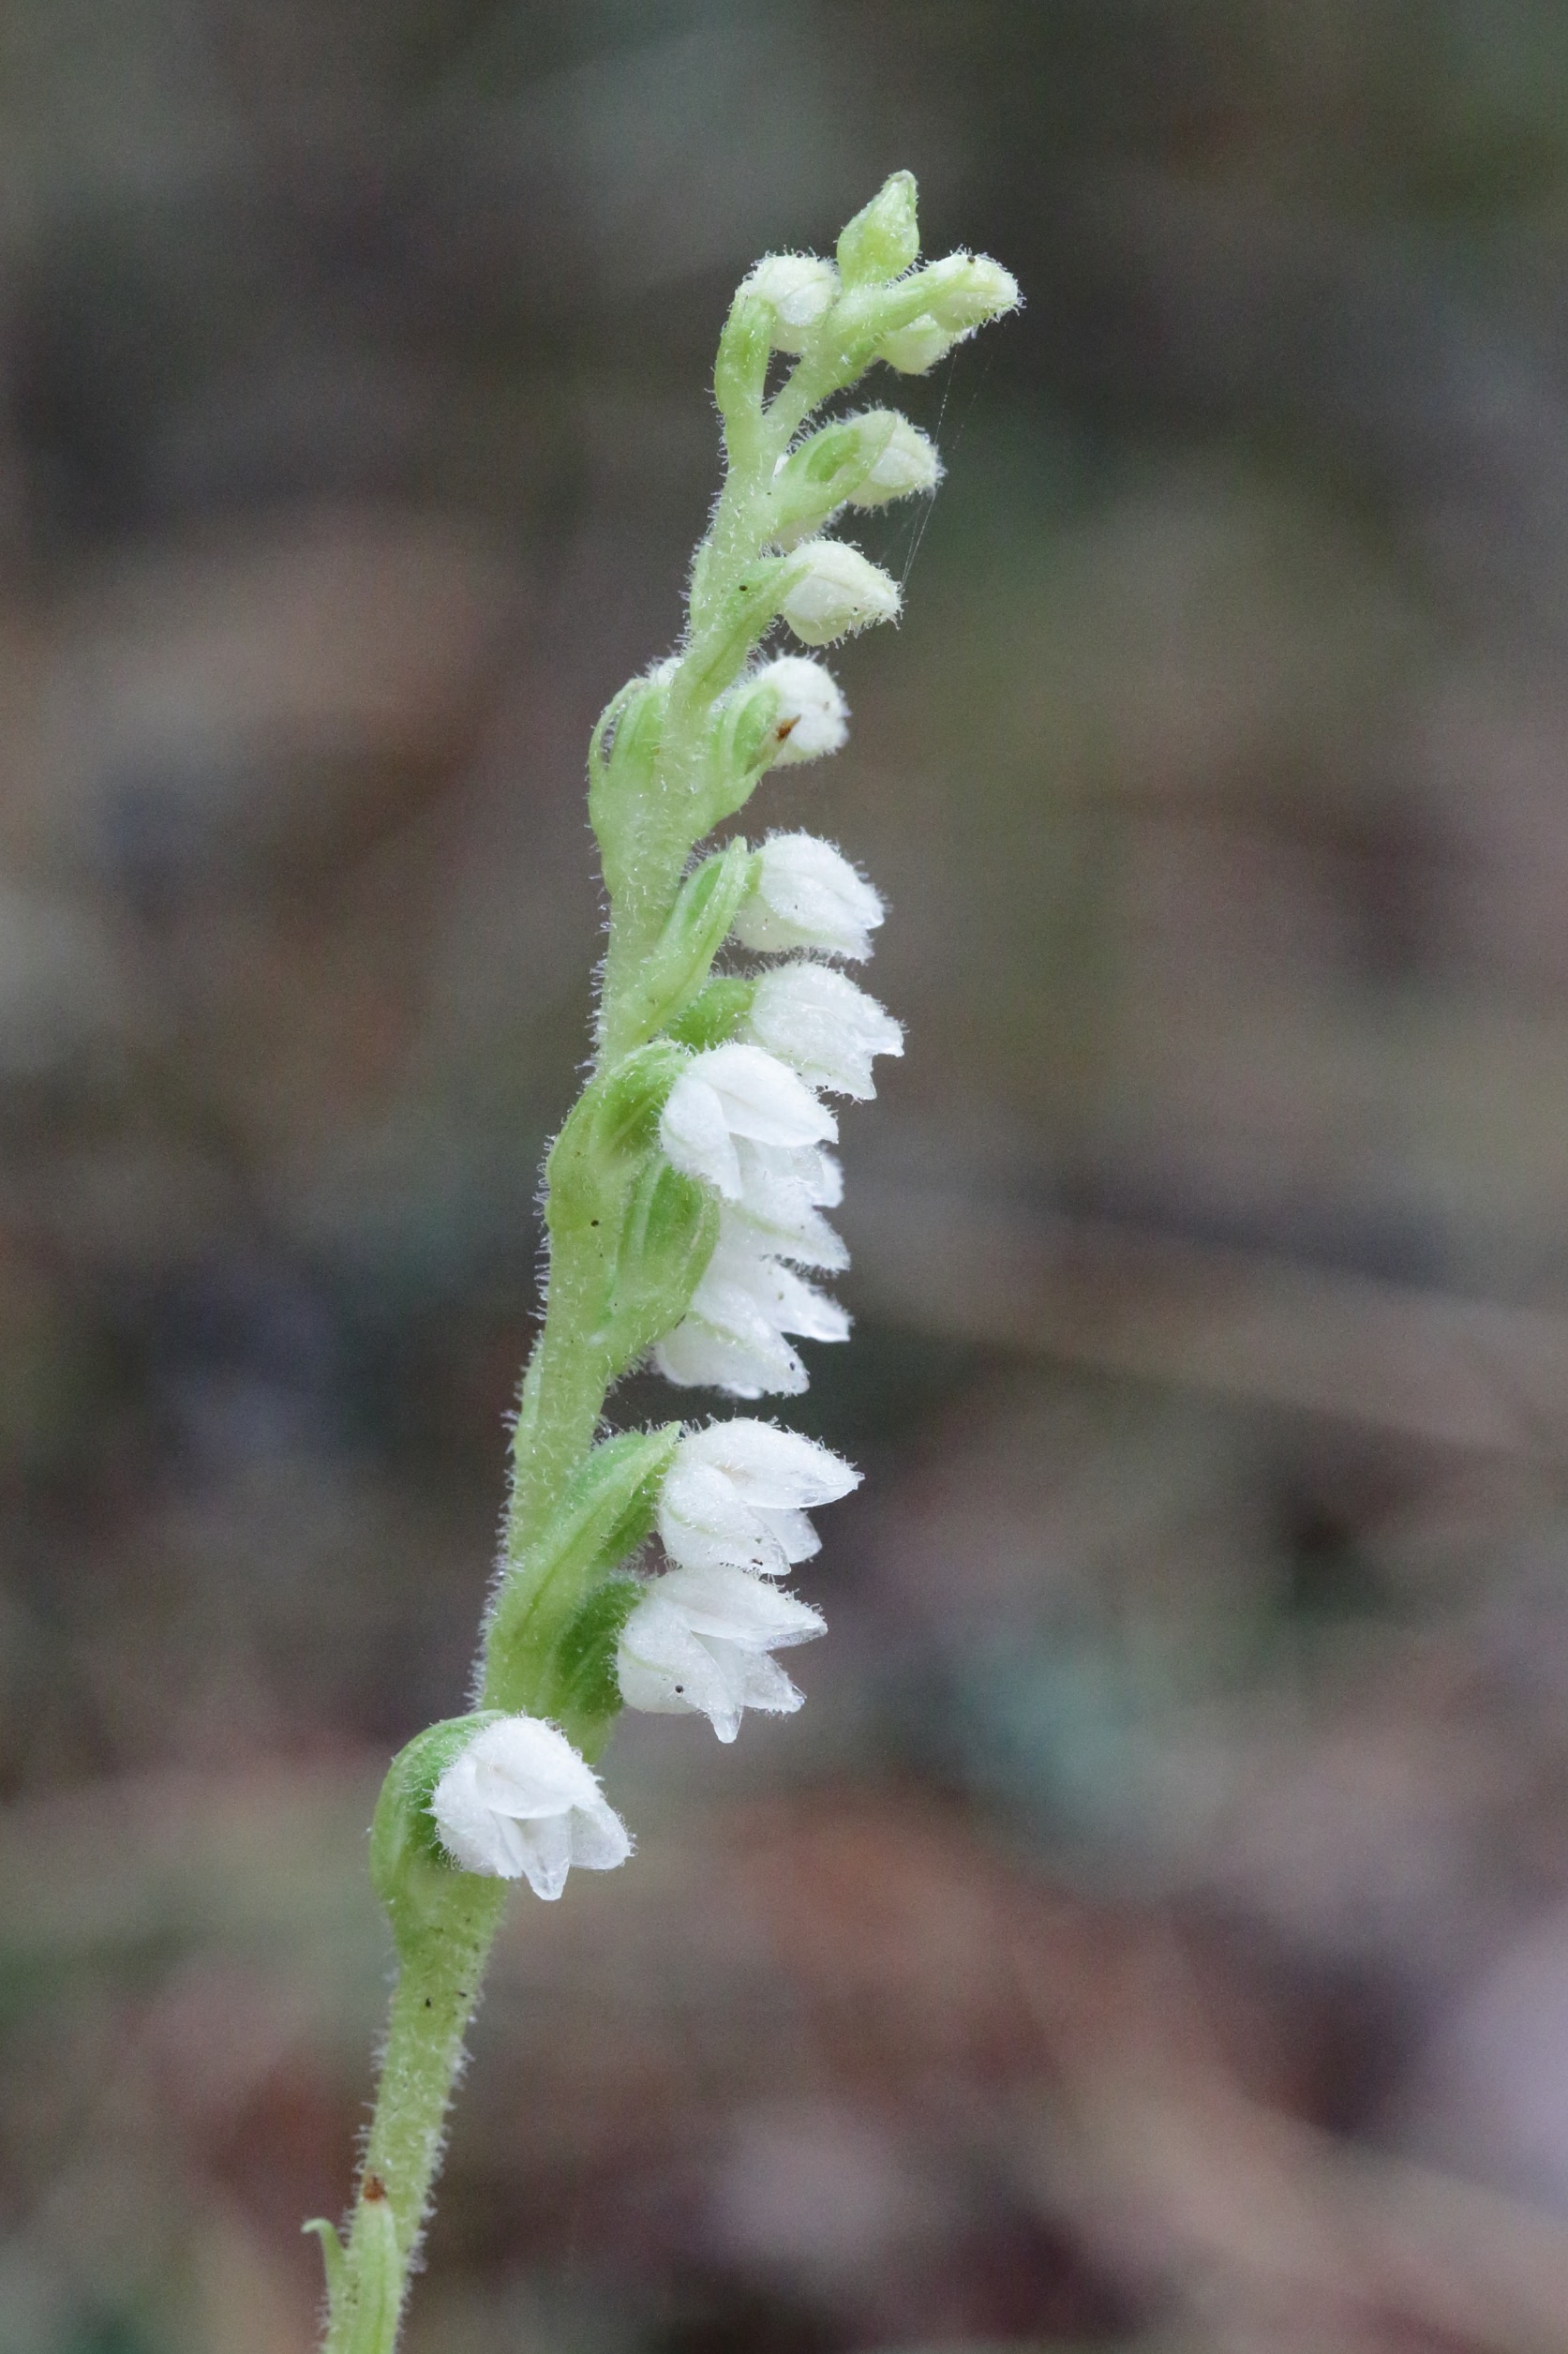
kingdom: Plantae
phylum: Tracheophyta
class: Liliopsida
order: Asparagales
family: Orchidaceae
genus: Goodyera
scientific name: Goodyera repens
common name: Knærod
